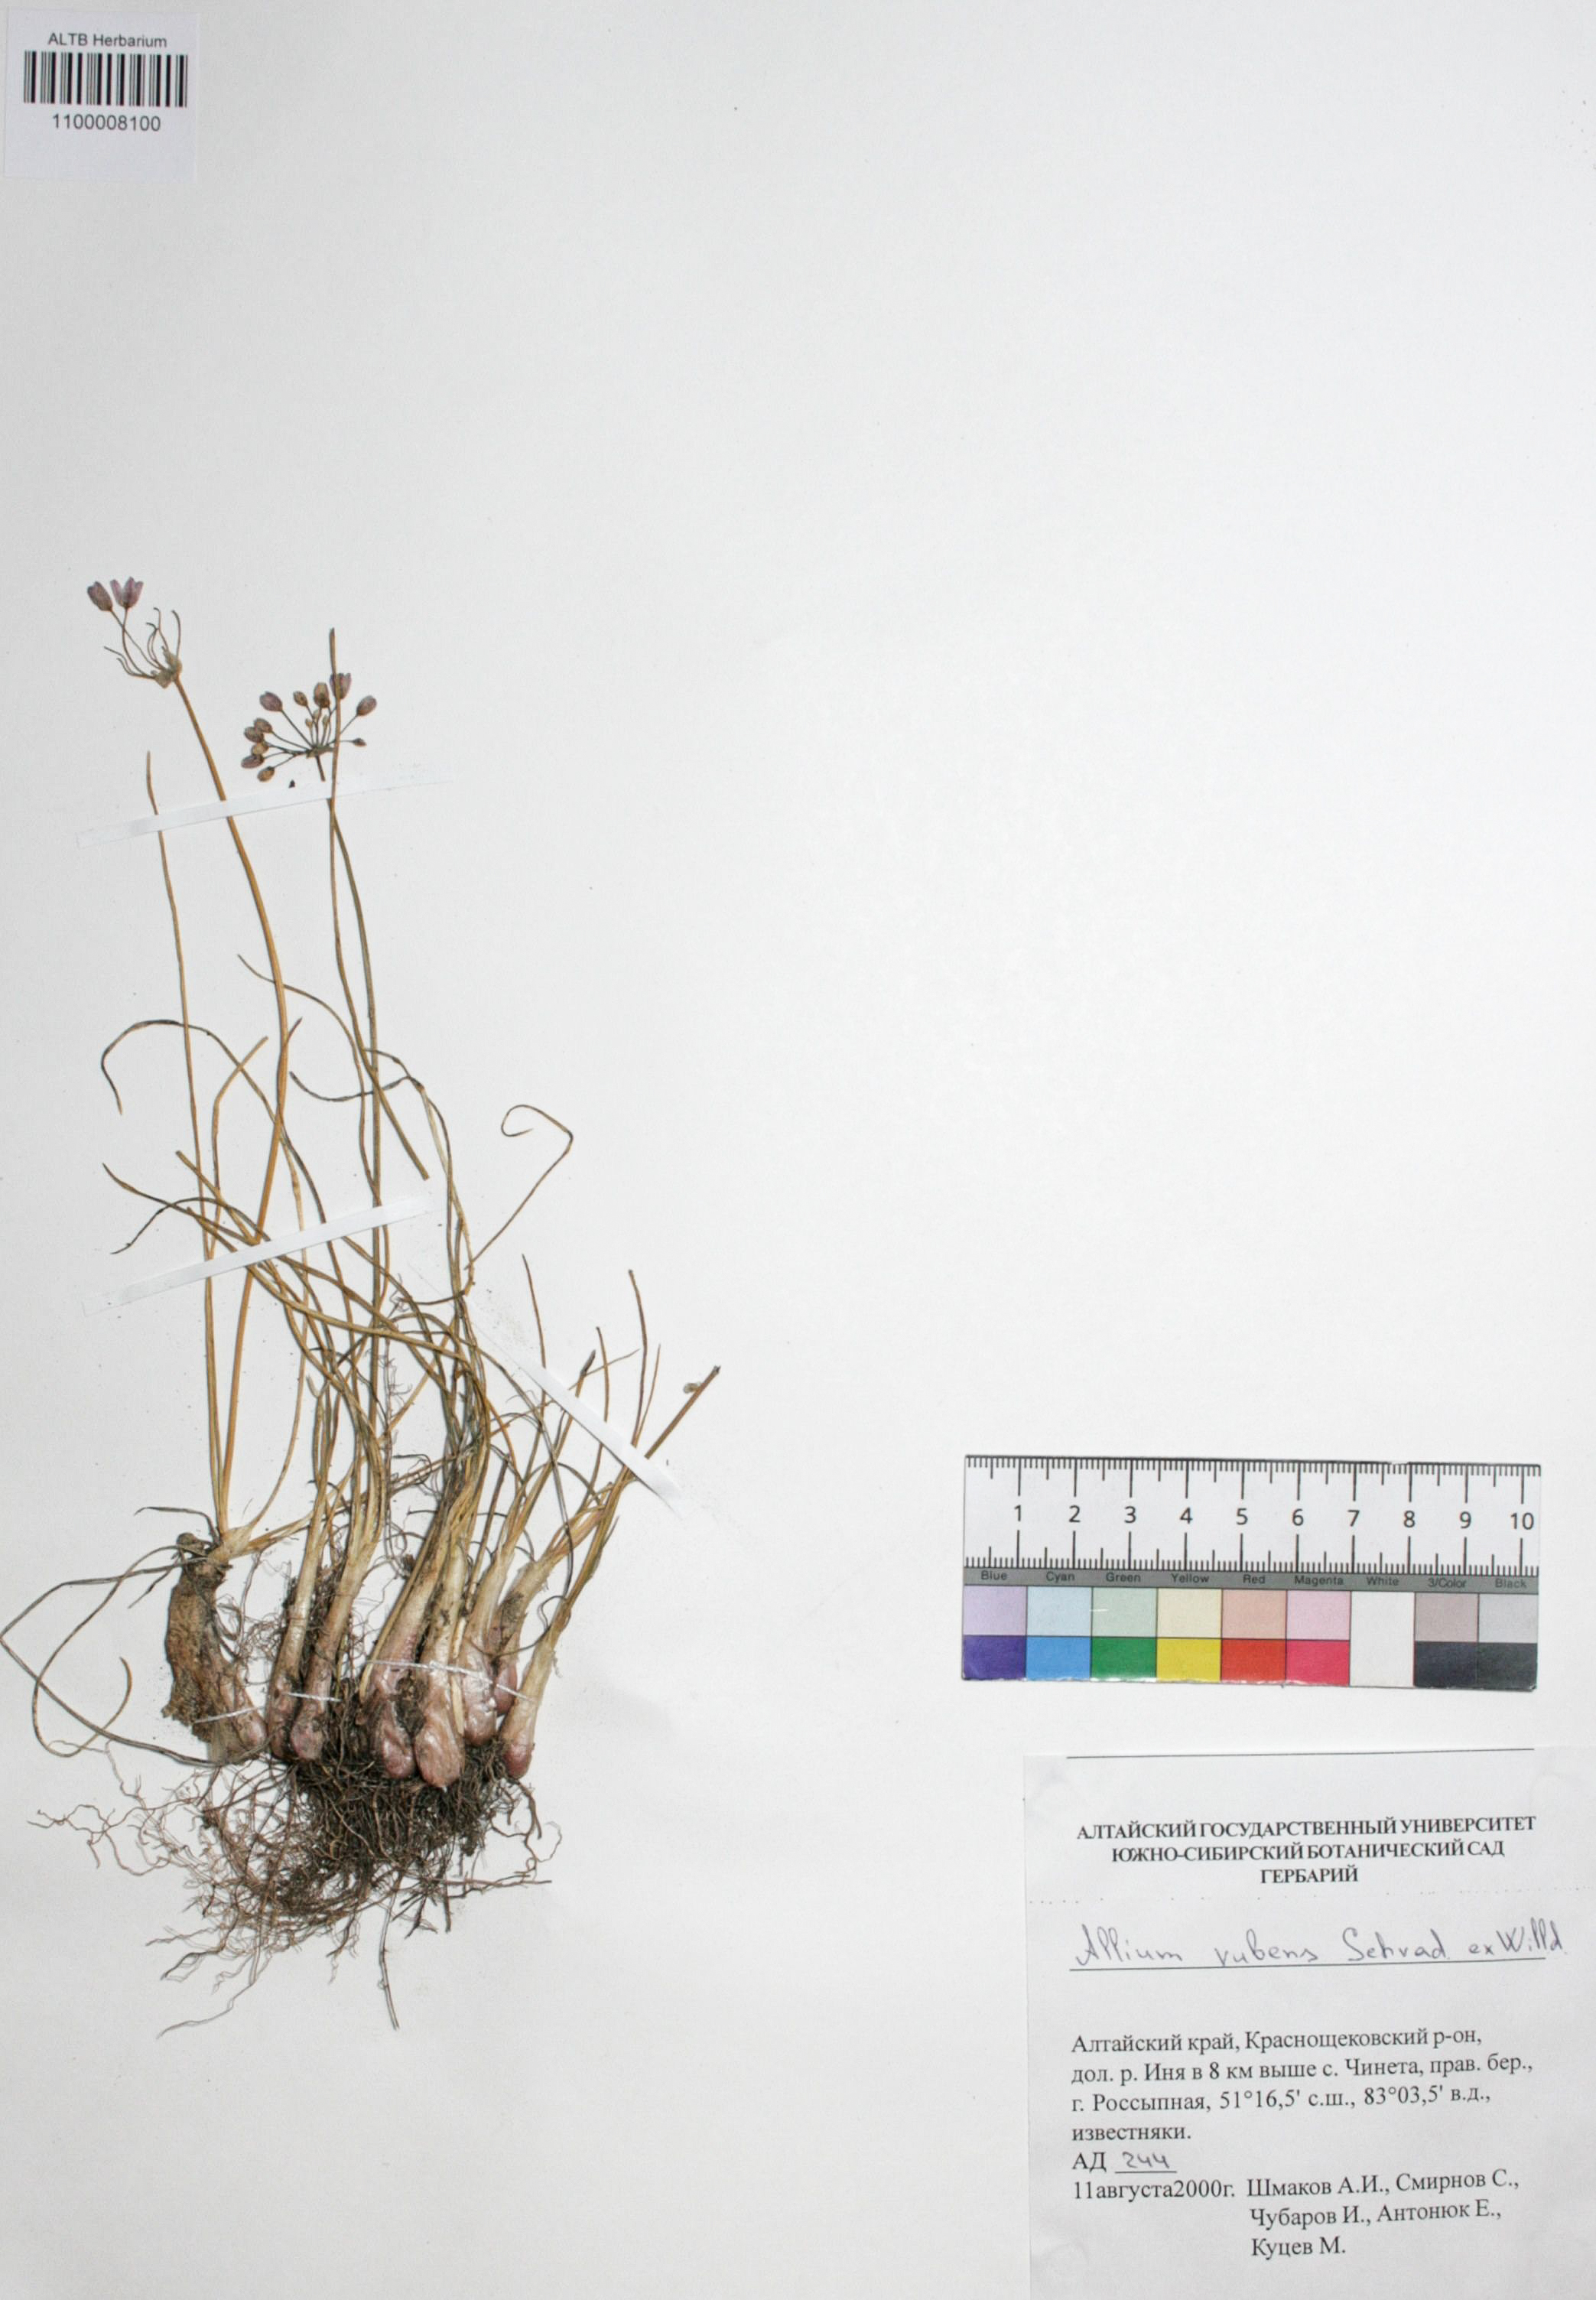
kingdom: Plantae
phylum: Tracheophyta
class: Liliopsida
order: Asparagales
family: Amaryllidaceae
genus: Allium
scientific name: Allium rubens
